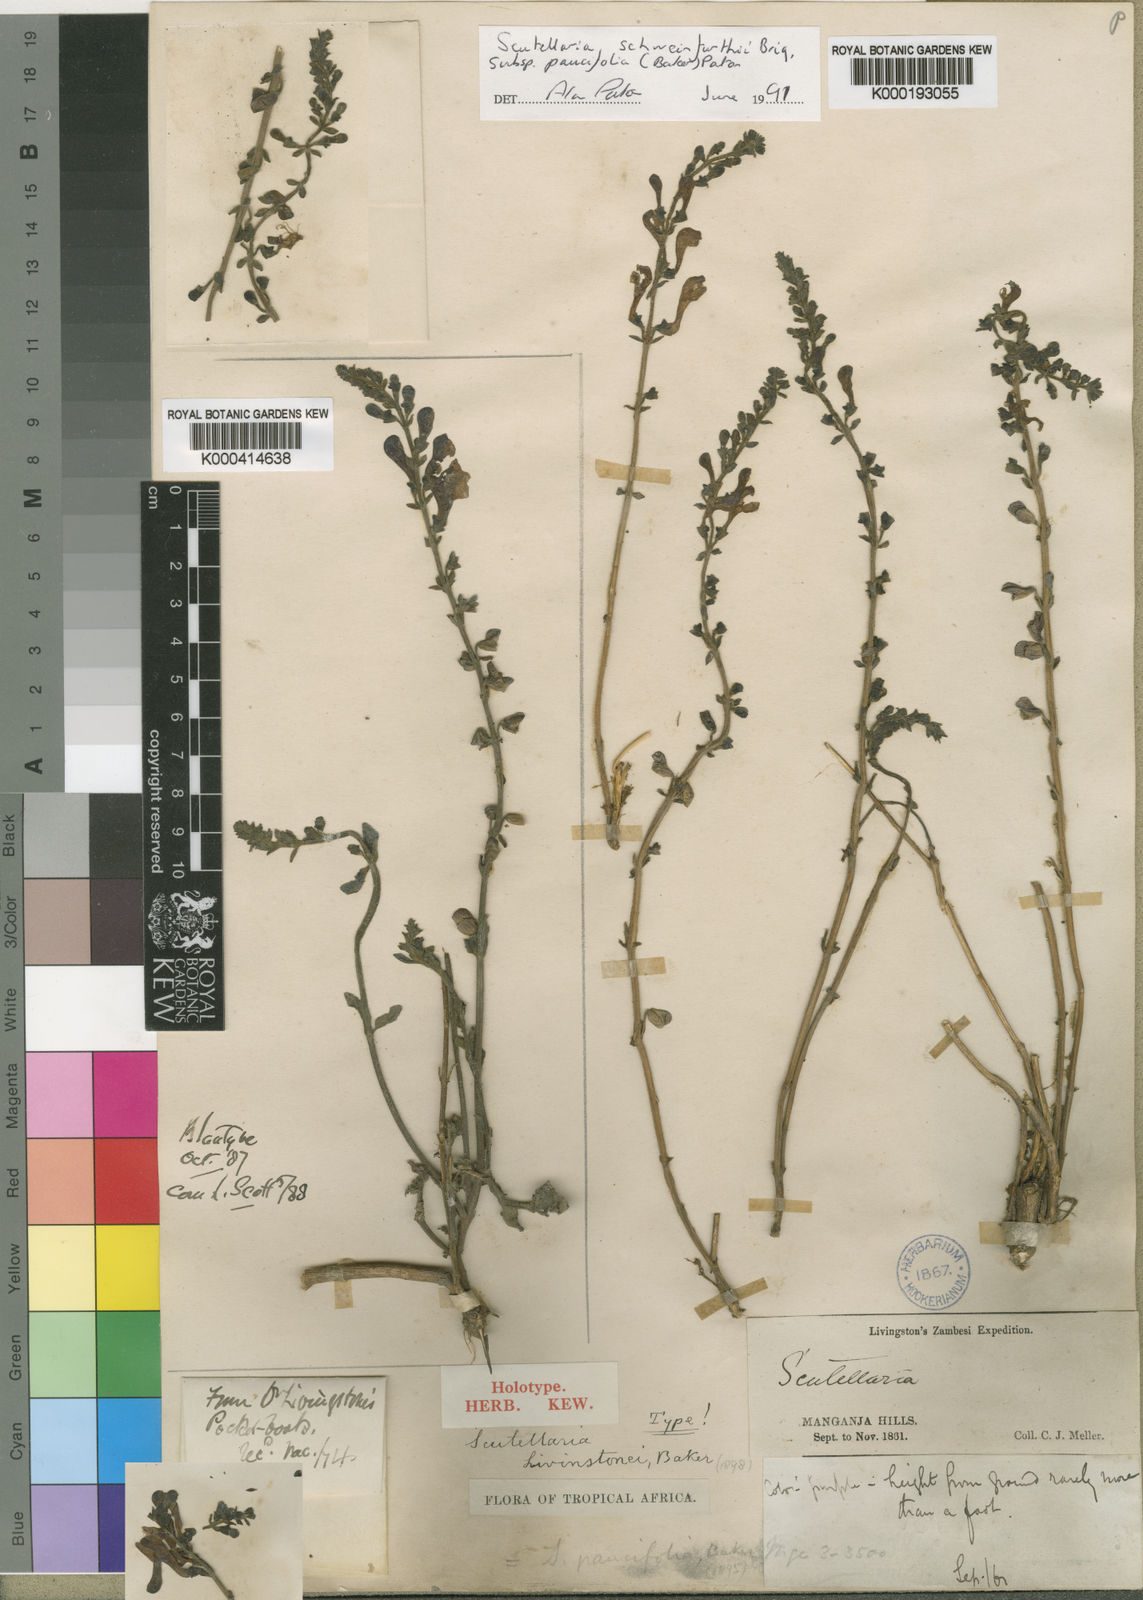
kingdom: Plantae
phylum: Tracheophyta
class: Magnoliopsida
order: Lamiales
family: Lamiaceae
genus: Scutellaria
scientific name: Scutellaria schweinfurthii
